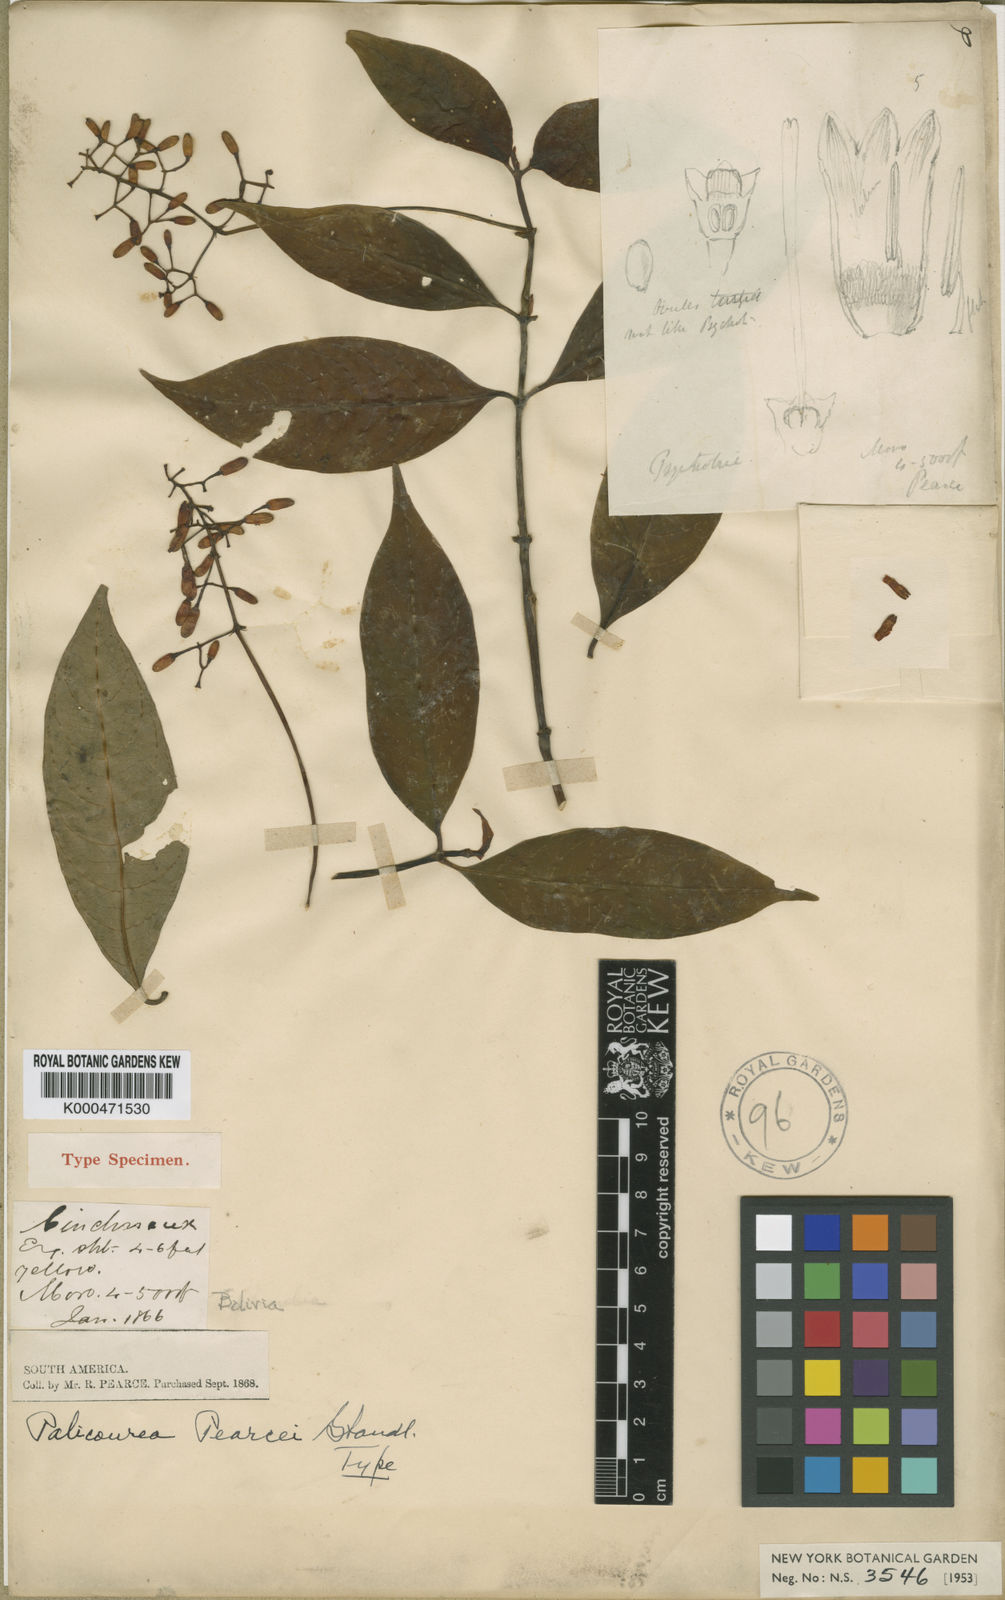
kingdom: Plantae
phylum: Tracheophyta
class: Magnoliopsida
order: Gentianales
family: Rubiaceae
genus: Palicourea
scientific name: Palicourea ponasae
